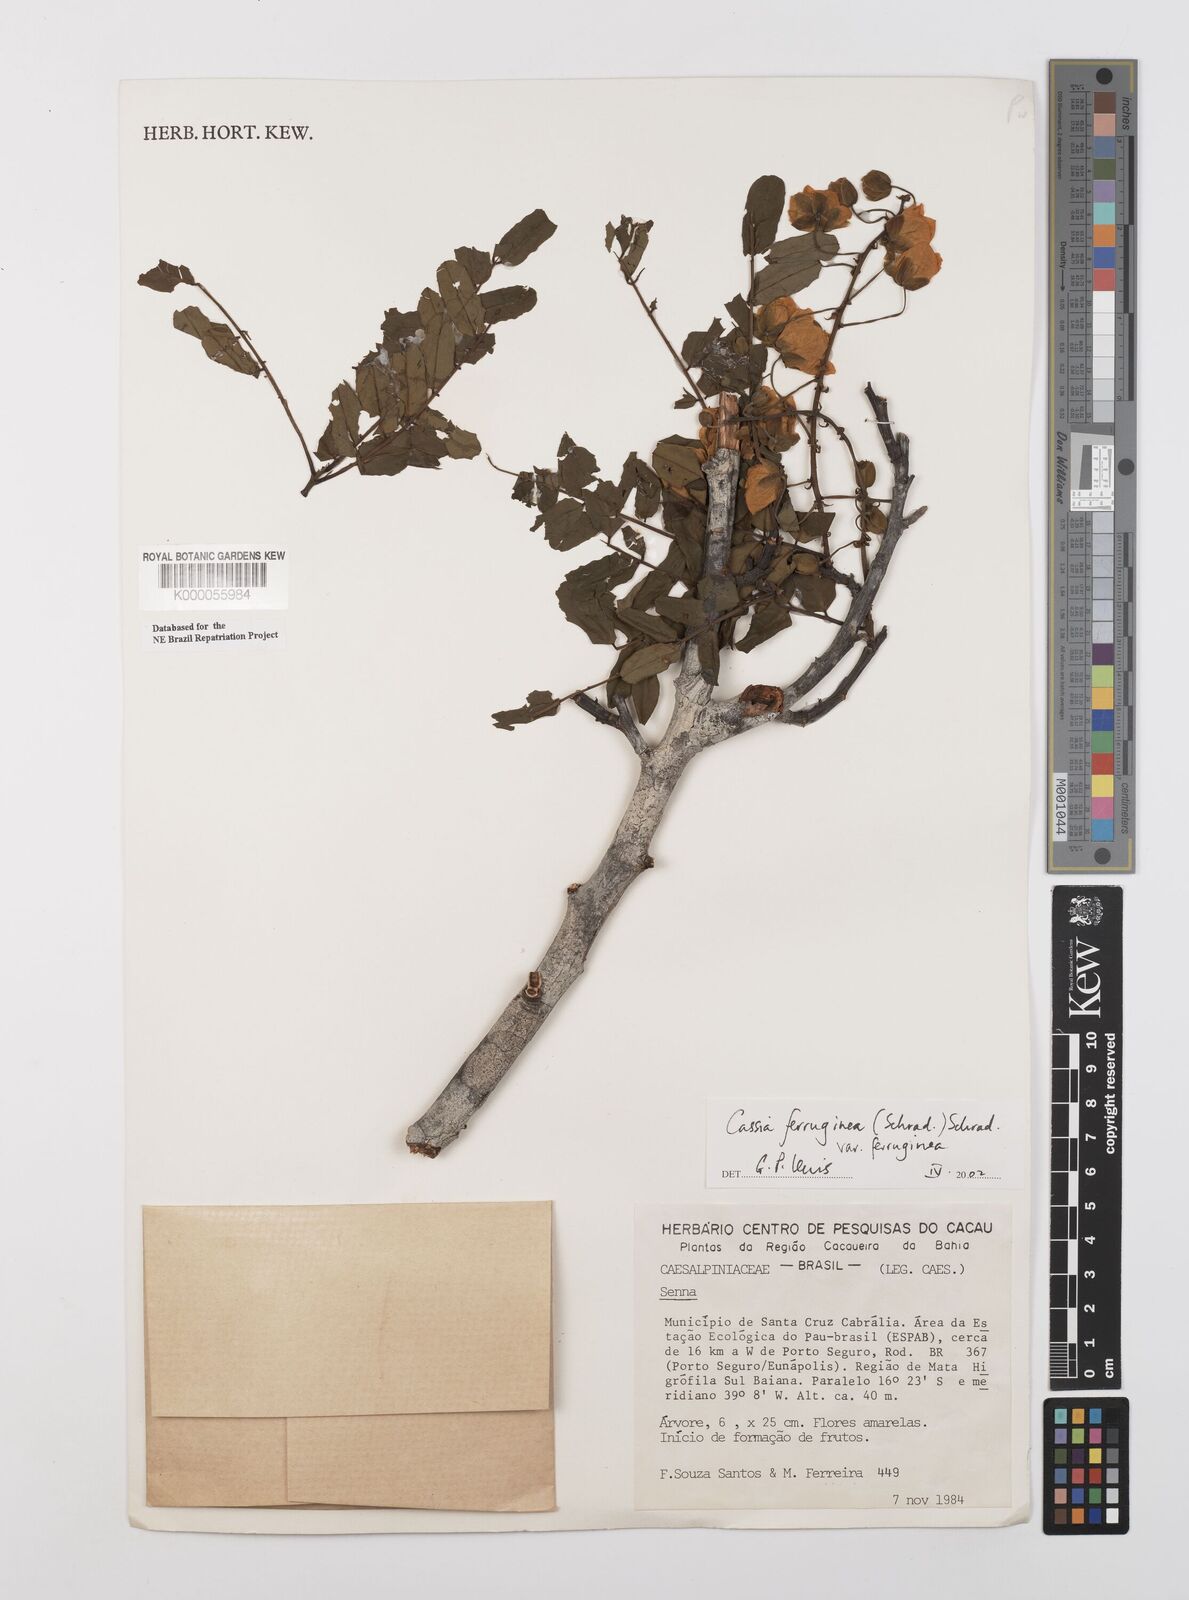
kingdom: Plantae
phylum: Tracheophyta
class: Magnoliopsida
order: Fabales
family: Fabaceae
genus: Senna
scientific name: Senna
